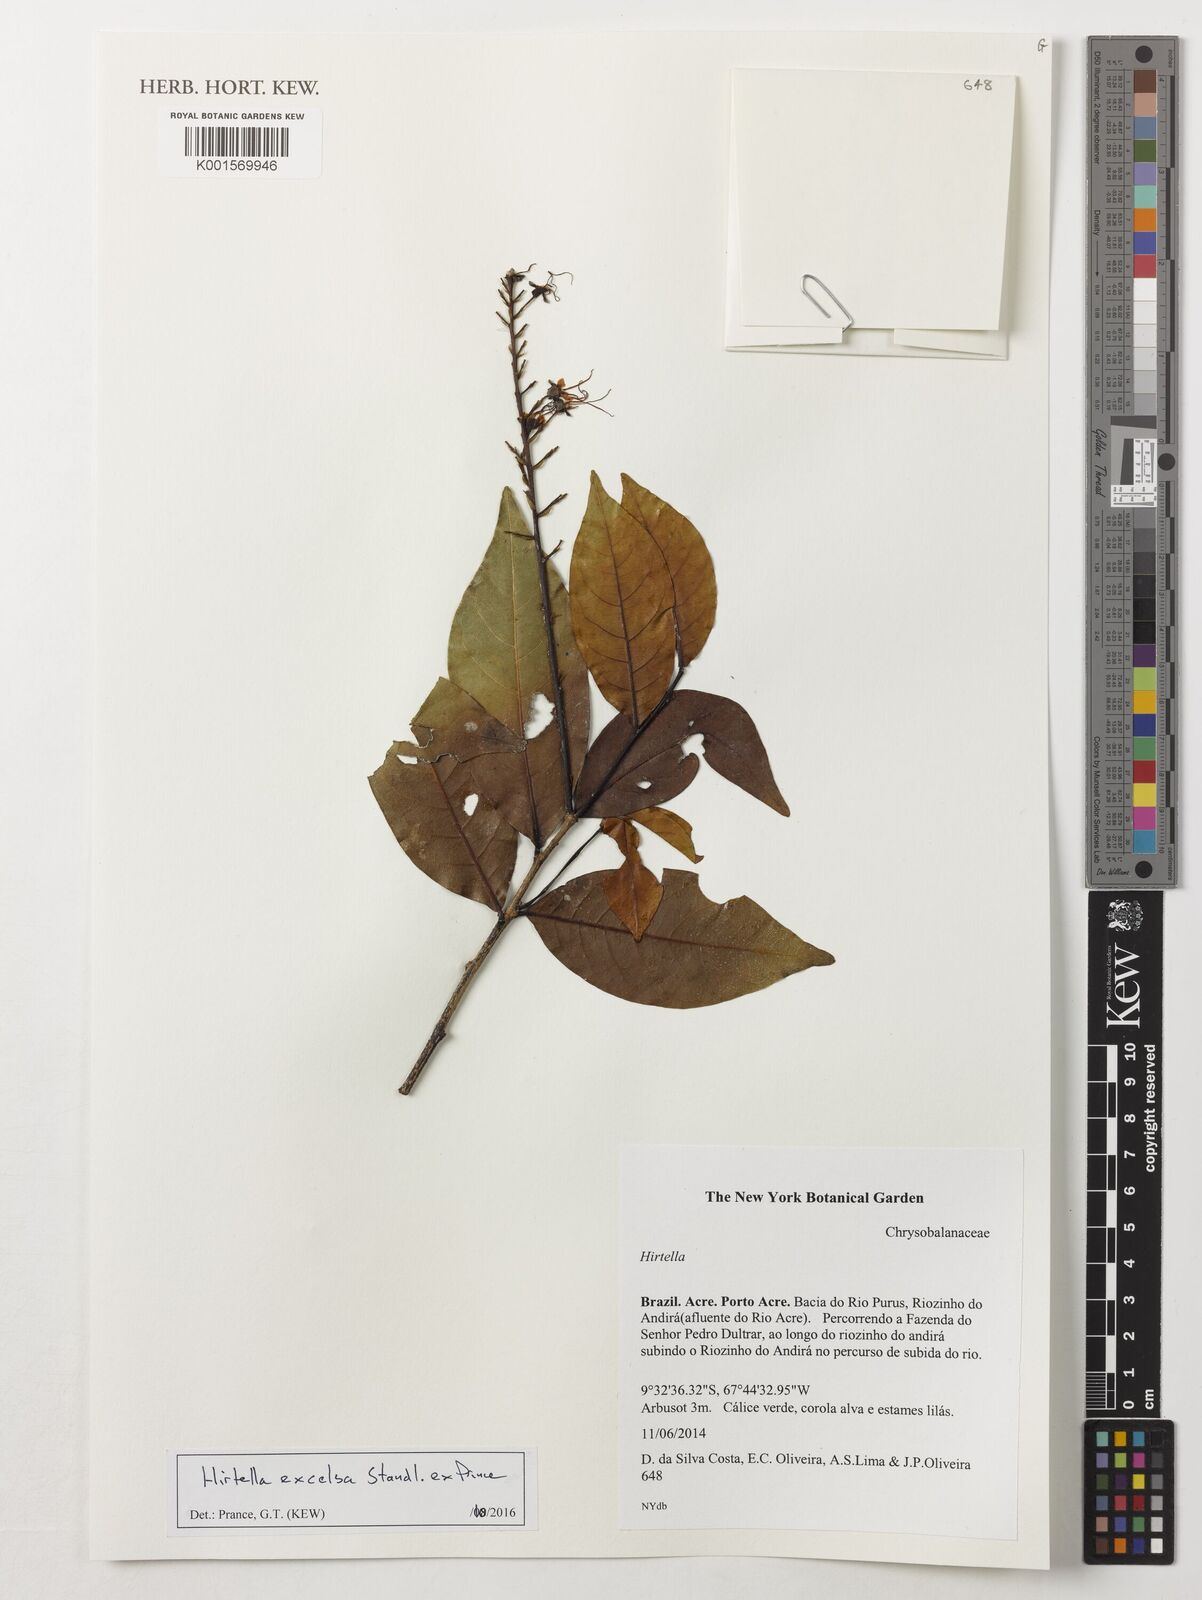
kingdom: Plantae
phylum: Tracheophyta
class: Magnoliopsida
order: Malpighiales
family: Chrysobalanaceae
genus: Hirtella
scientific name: Hirtella excelsa
